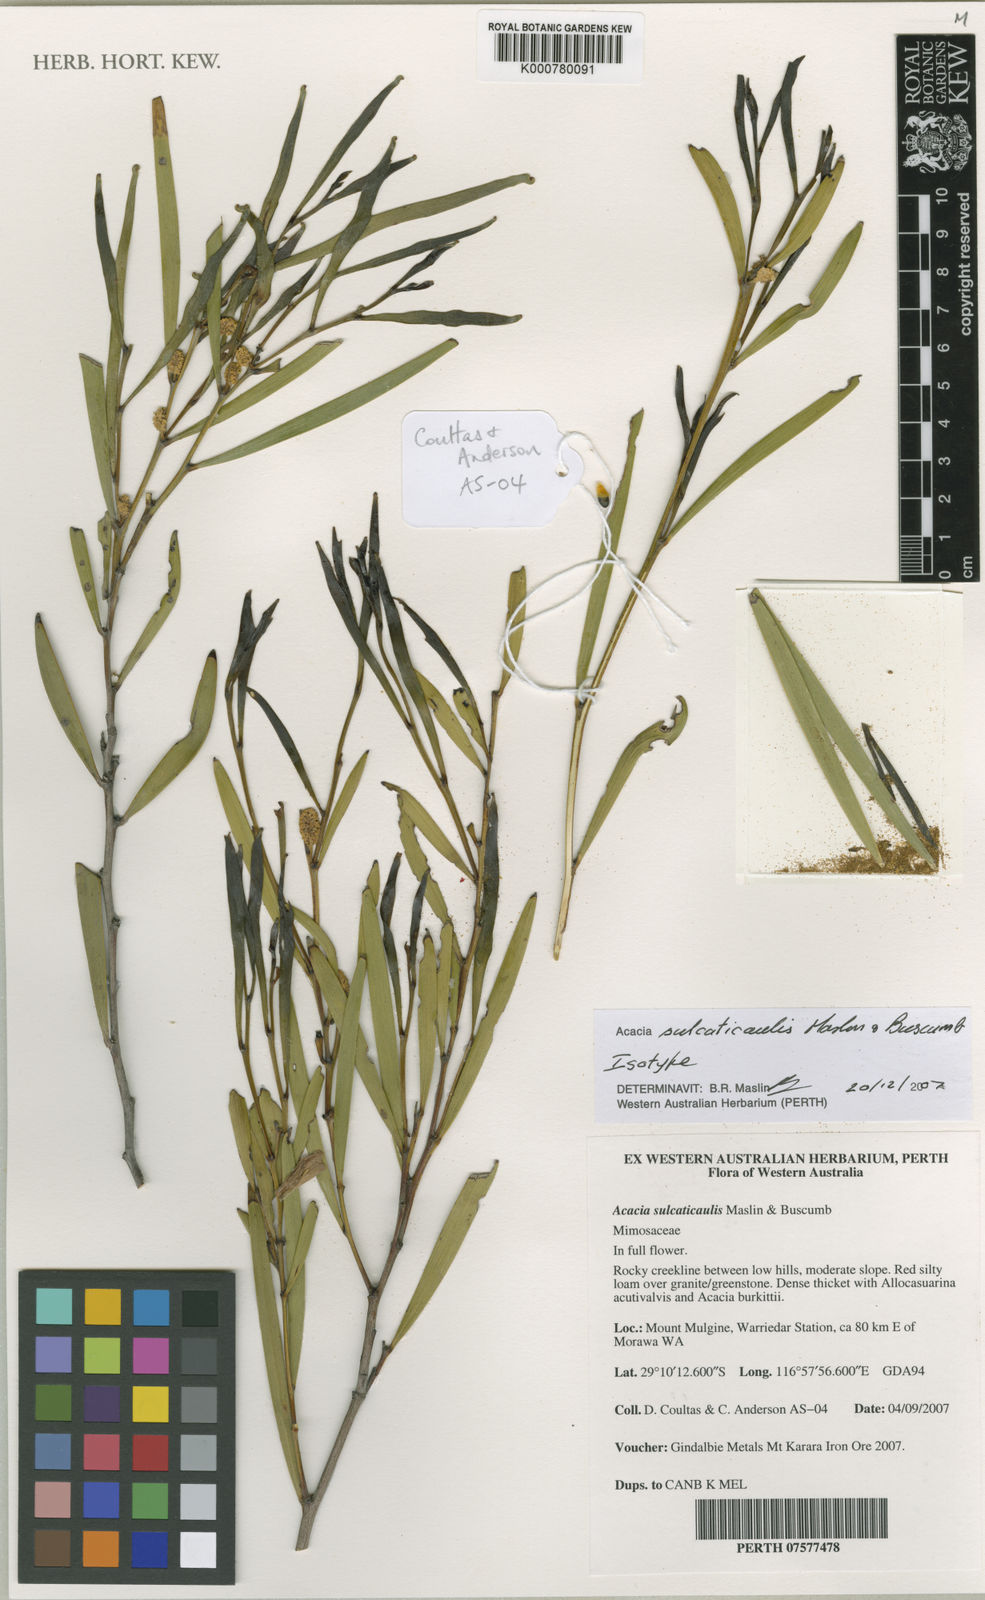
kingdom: Plantae
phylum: Tracheophyta
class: Magnoliopsida
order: Fabales
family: Fabaceae
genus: Acacia
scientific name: Acacia sulcaticaulis
